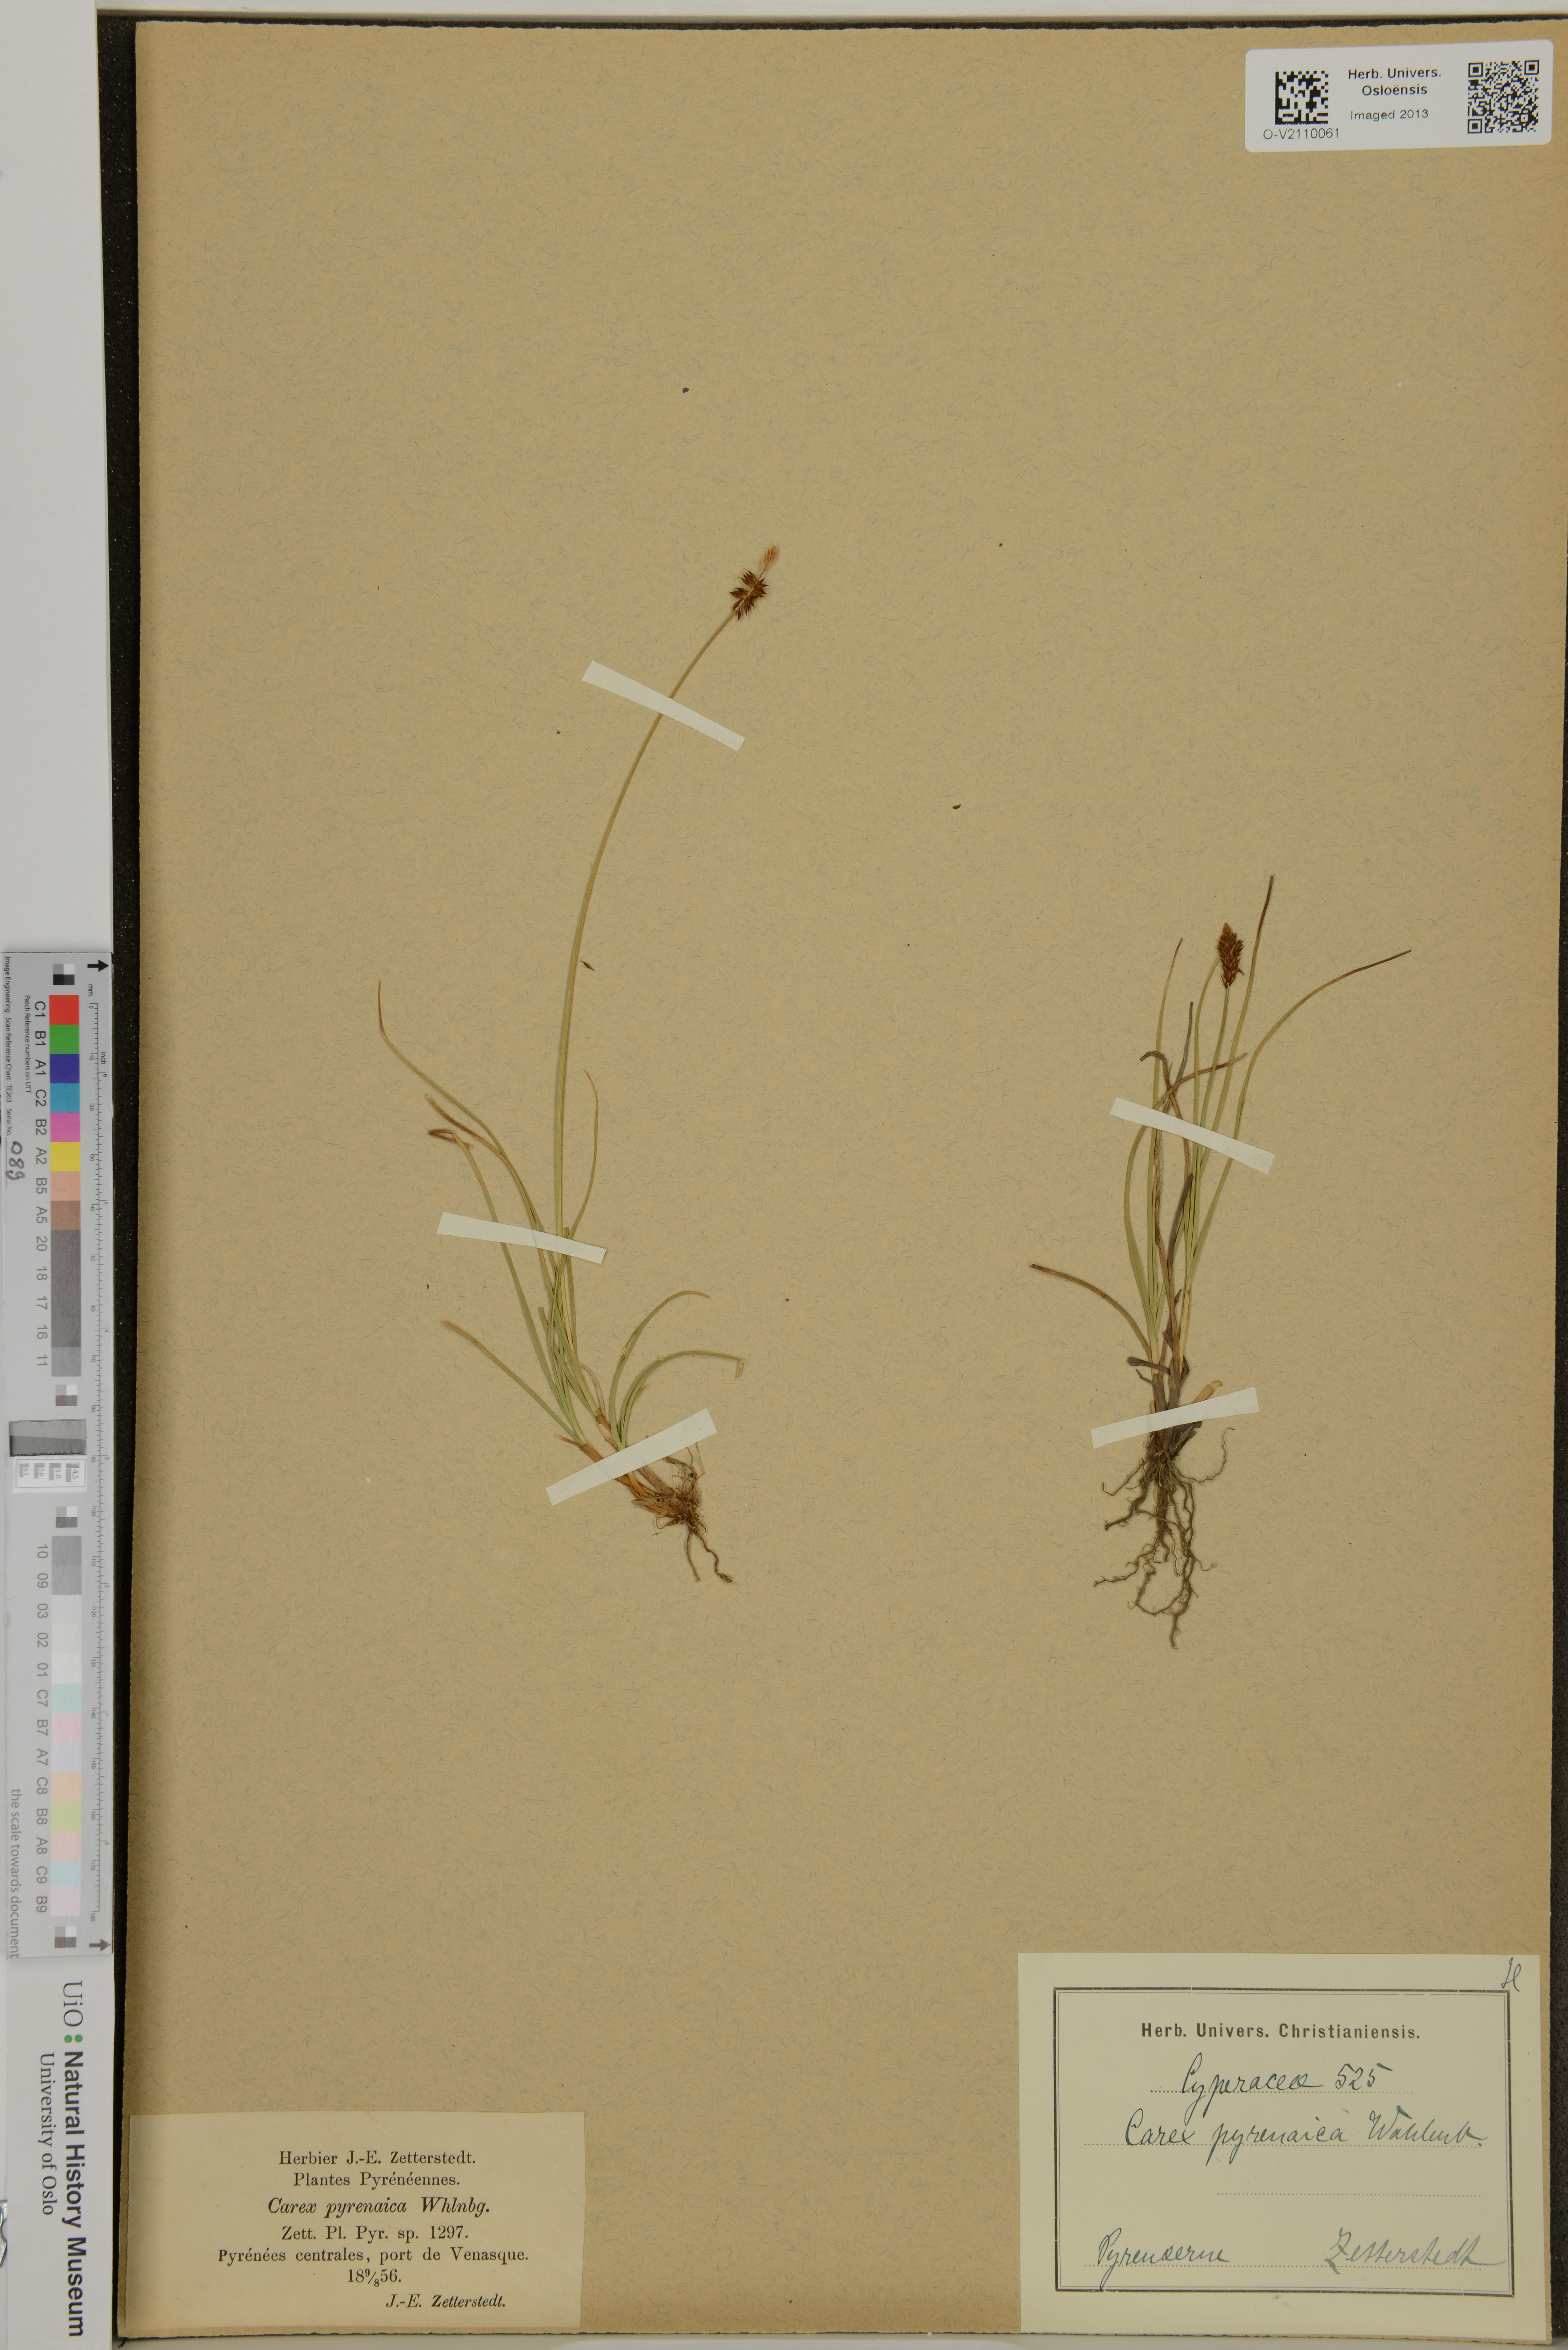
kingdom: Plantae
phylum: Tracheophyta
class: Liliopsida
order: Poales
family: Cyperaceae
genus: Carex
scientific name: Carex pyrenaica
